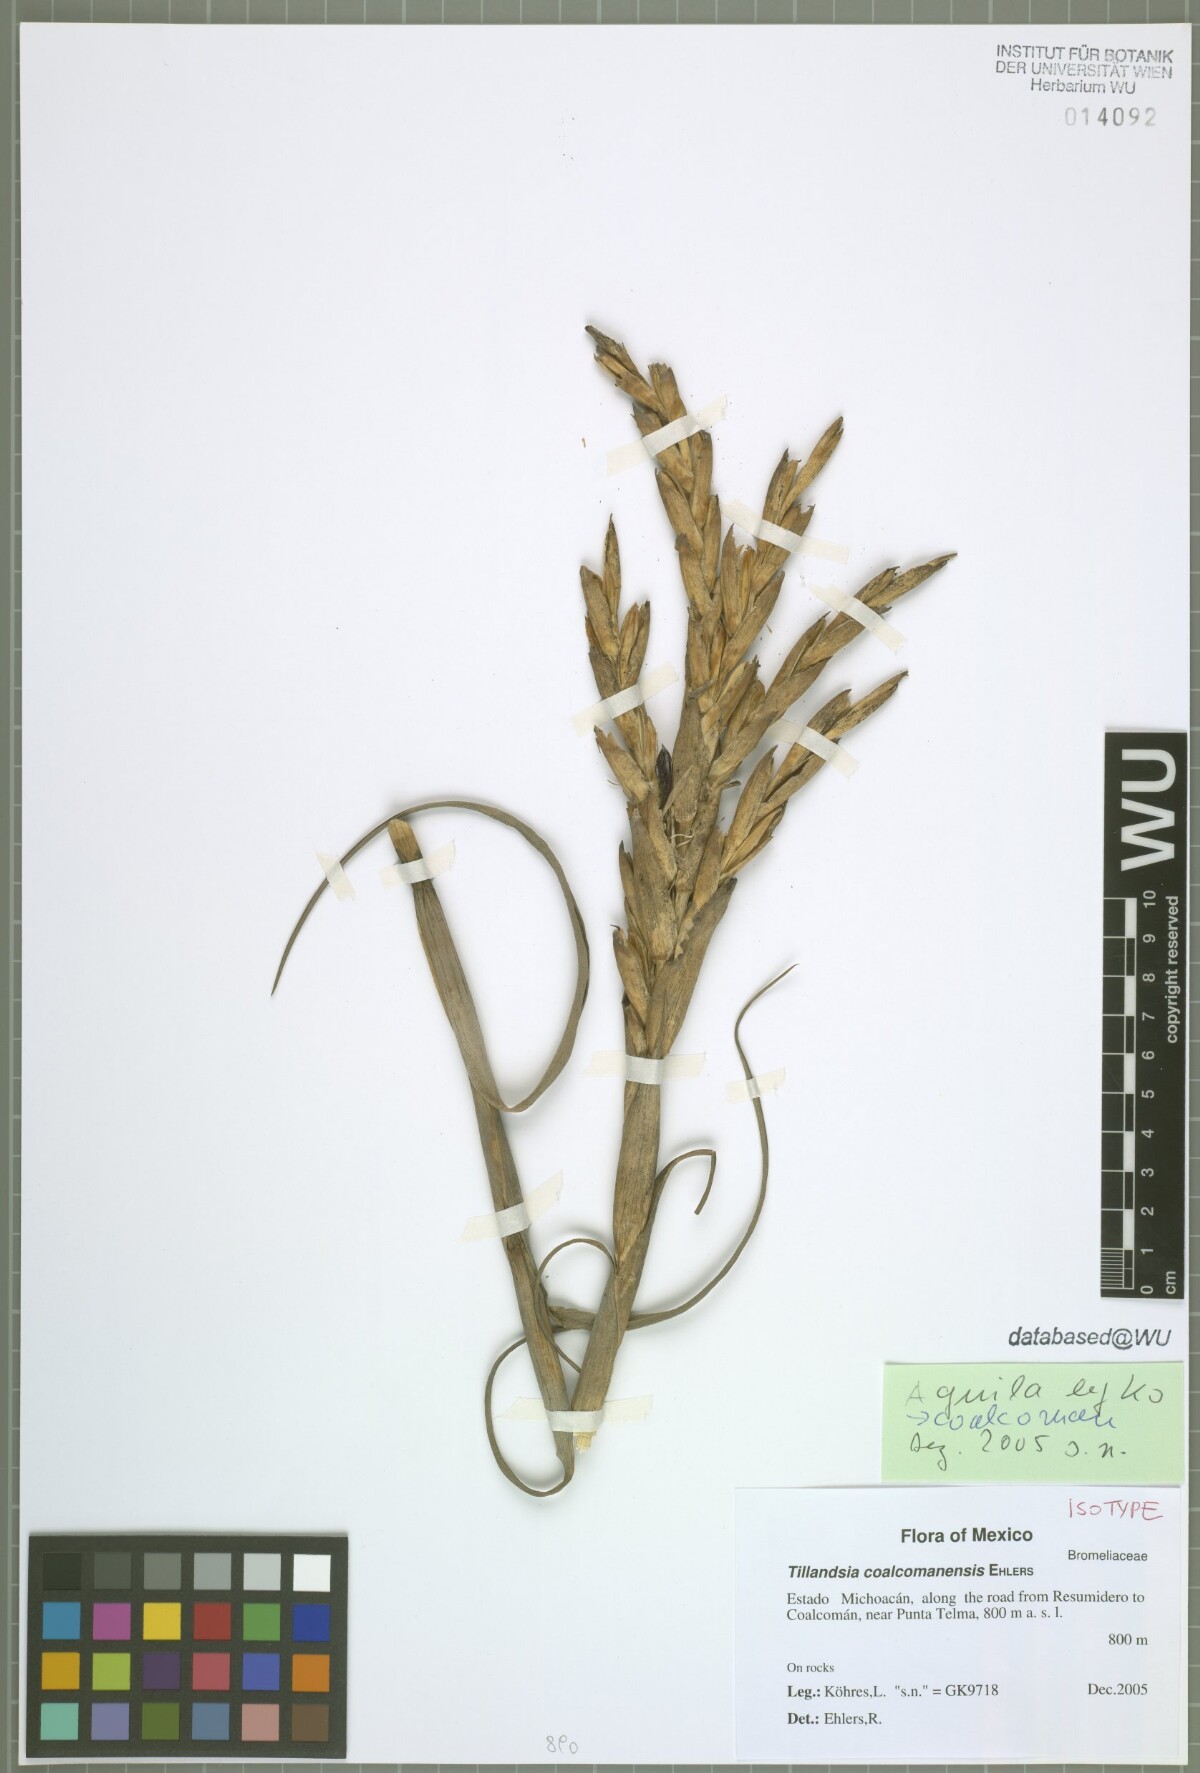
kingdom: Plantae
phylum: Tracheophyta
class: Liliopsida
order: Poales
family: Bromeliaceae
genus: Tillandsia
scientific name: Tillandsia coalcomanensis
